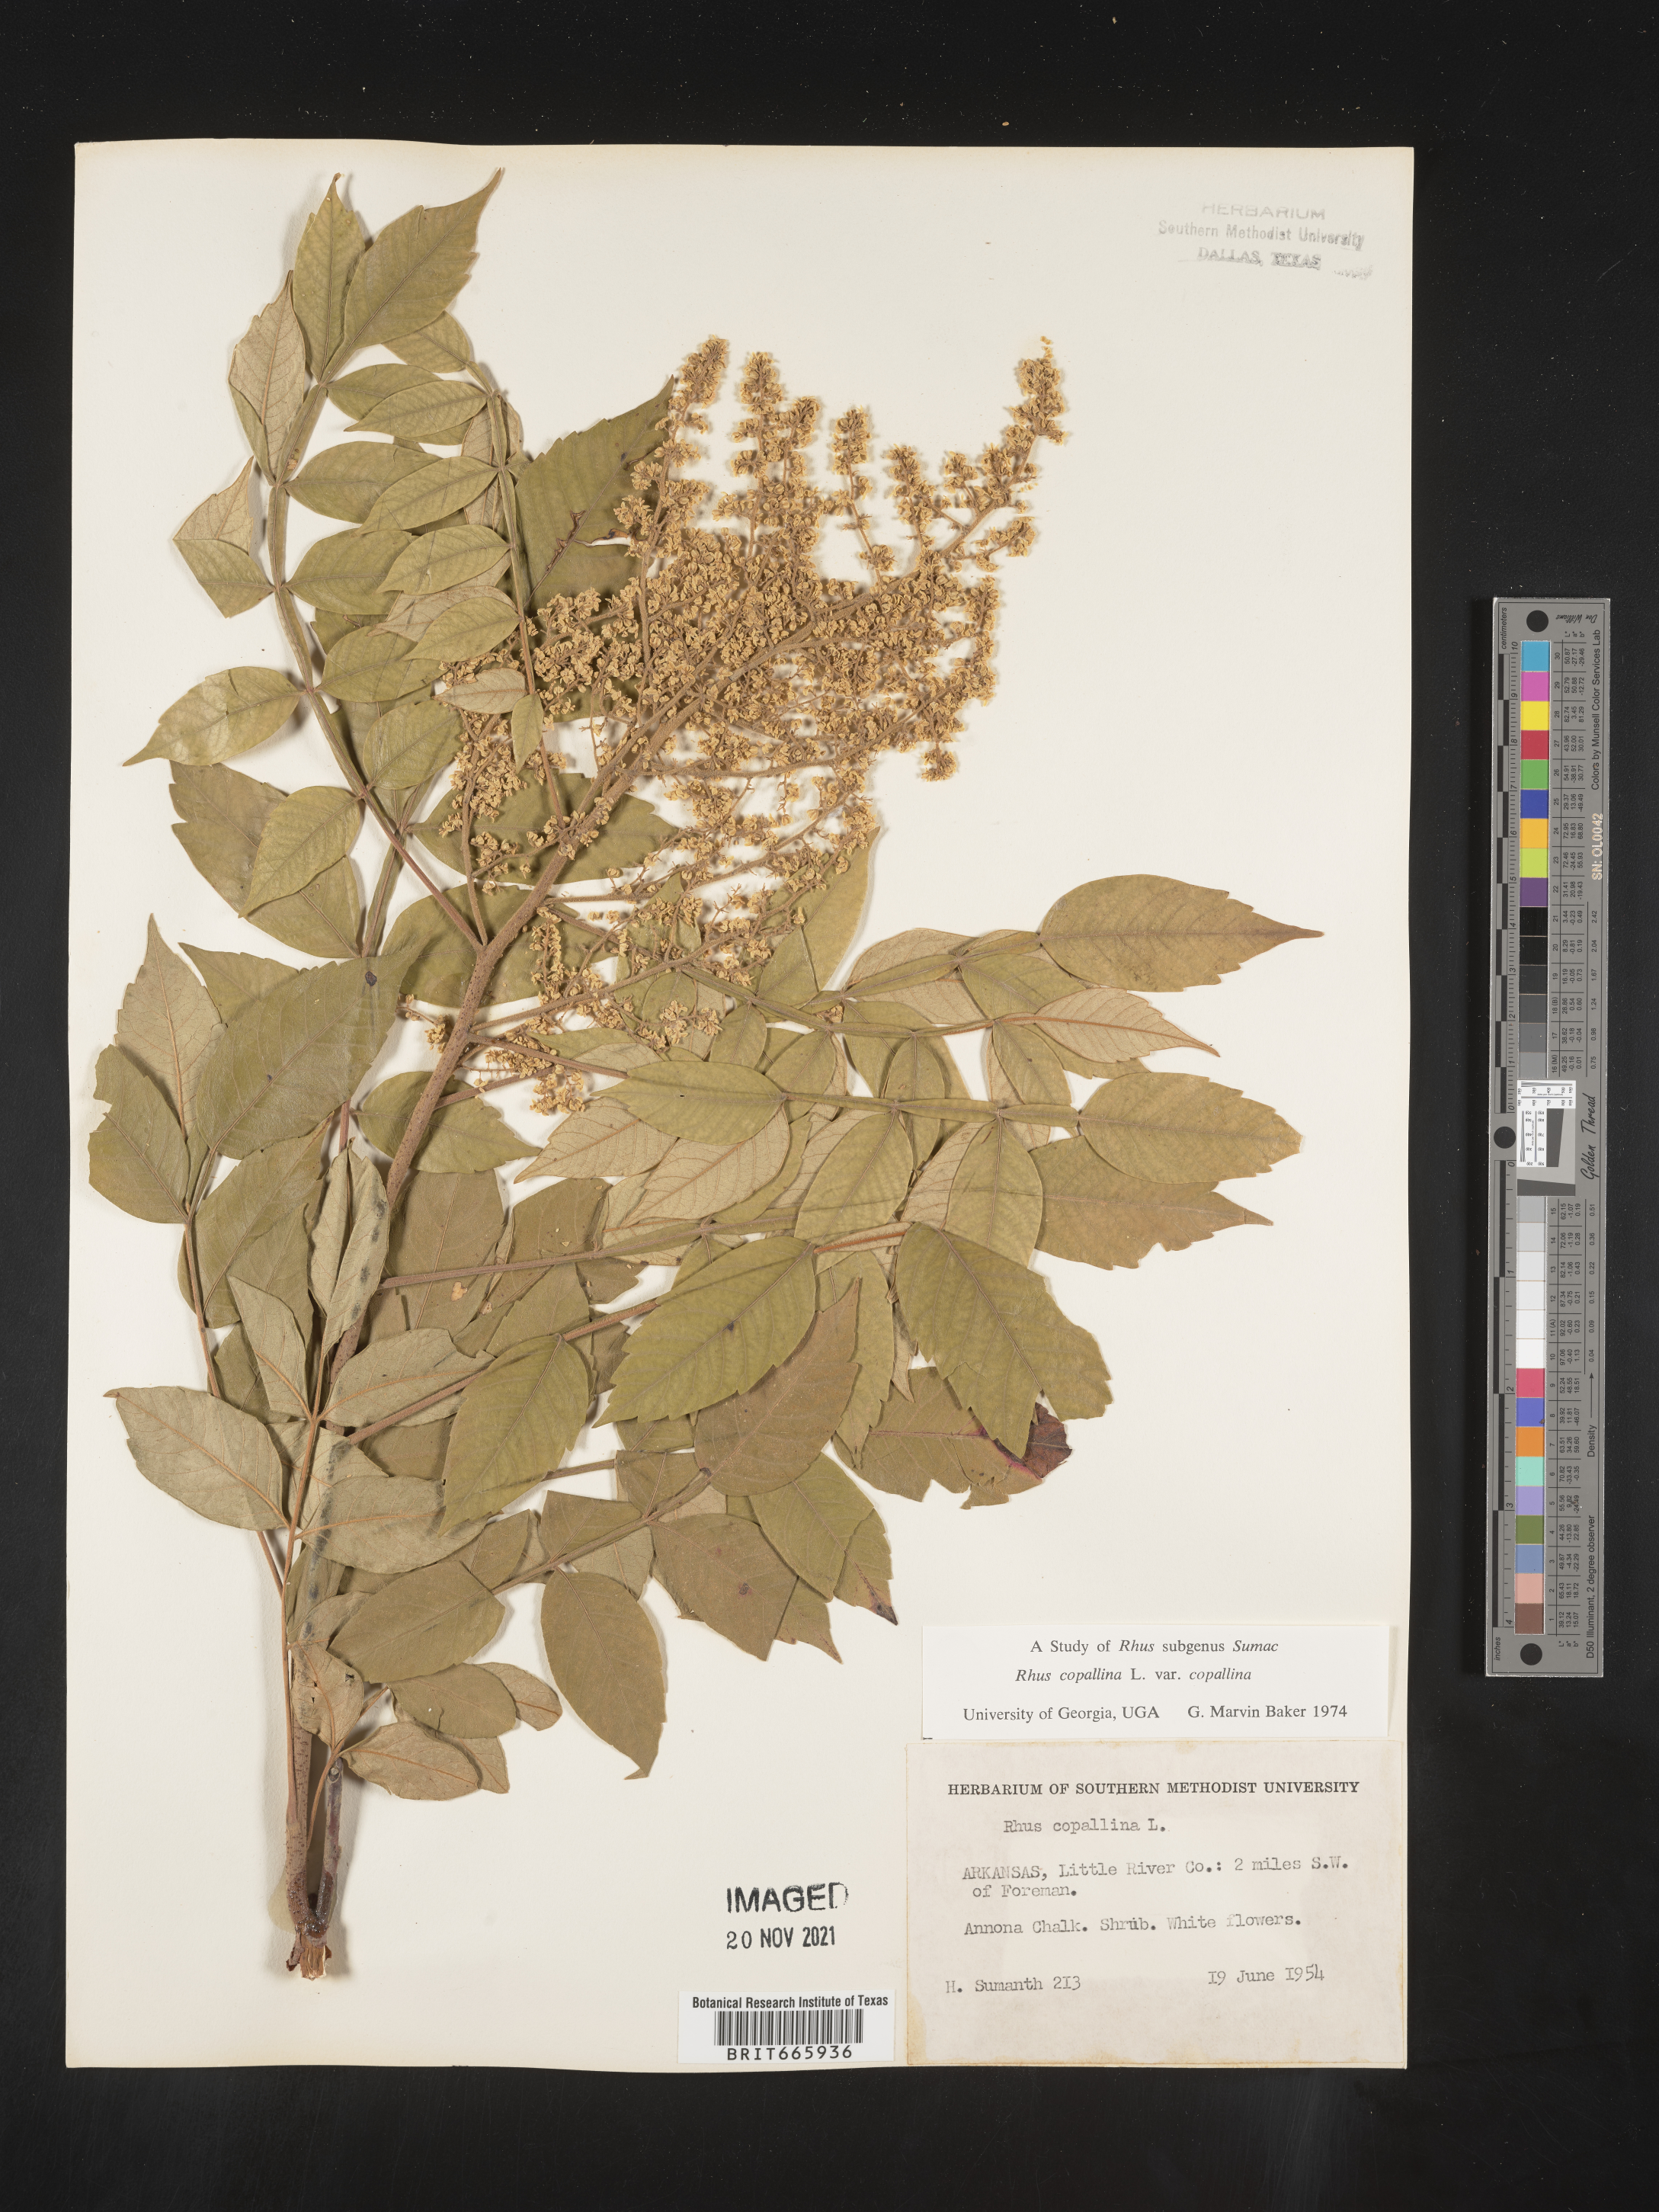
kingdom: Plantae
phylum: Tracheophyta
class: Magnoliopsida
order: Sapindales
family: Anacardiaceae
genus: Rhus
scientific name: Rhus copallina
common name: Shining sumac
